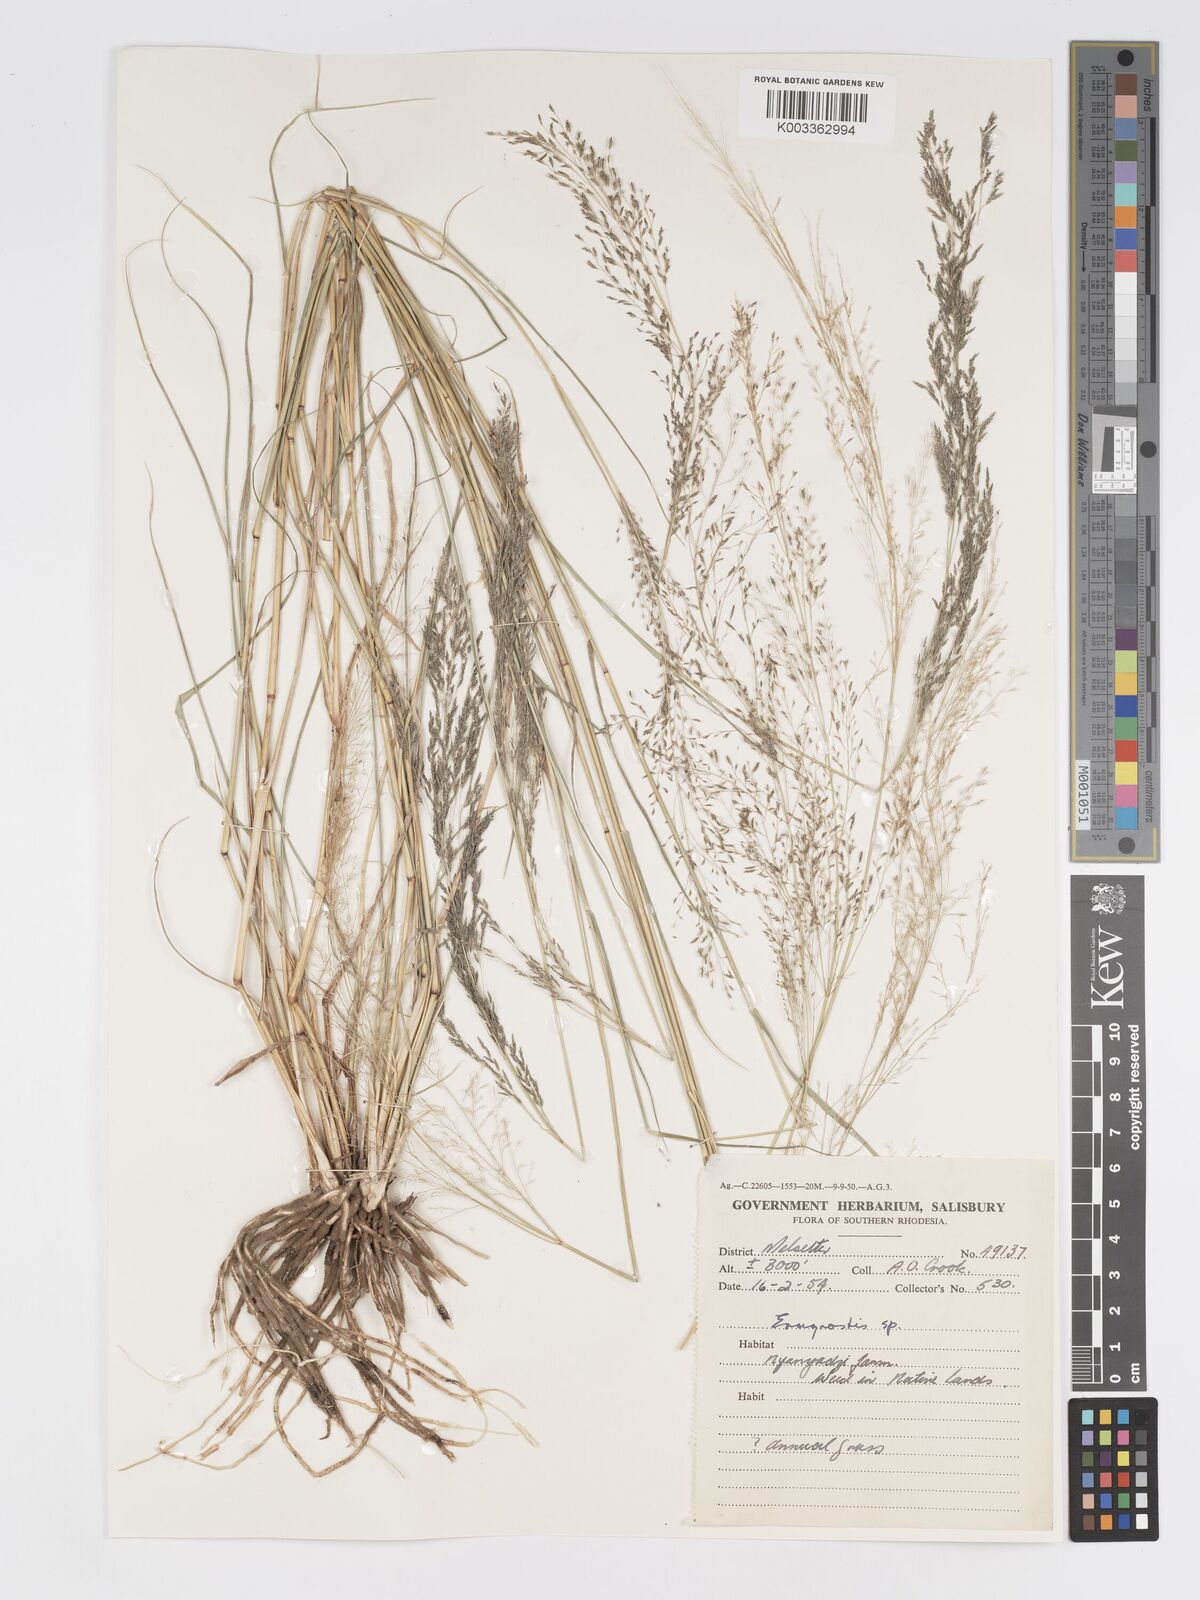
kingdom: Plantae
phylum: Tracheophyta
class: Liliopsida
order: Poales
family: Poaceae
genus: Eragrostis
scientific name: Eragrostis cylindriflora
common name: Cylinderflower lovegrass
